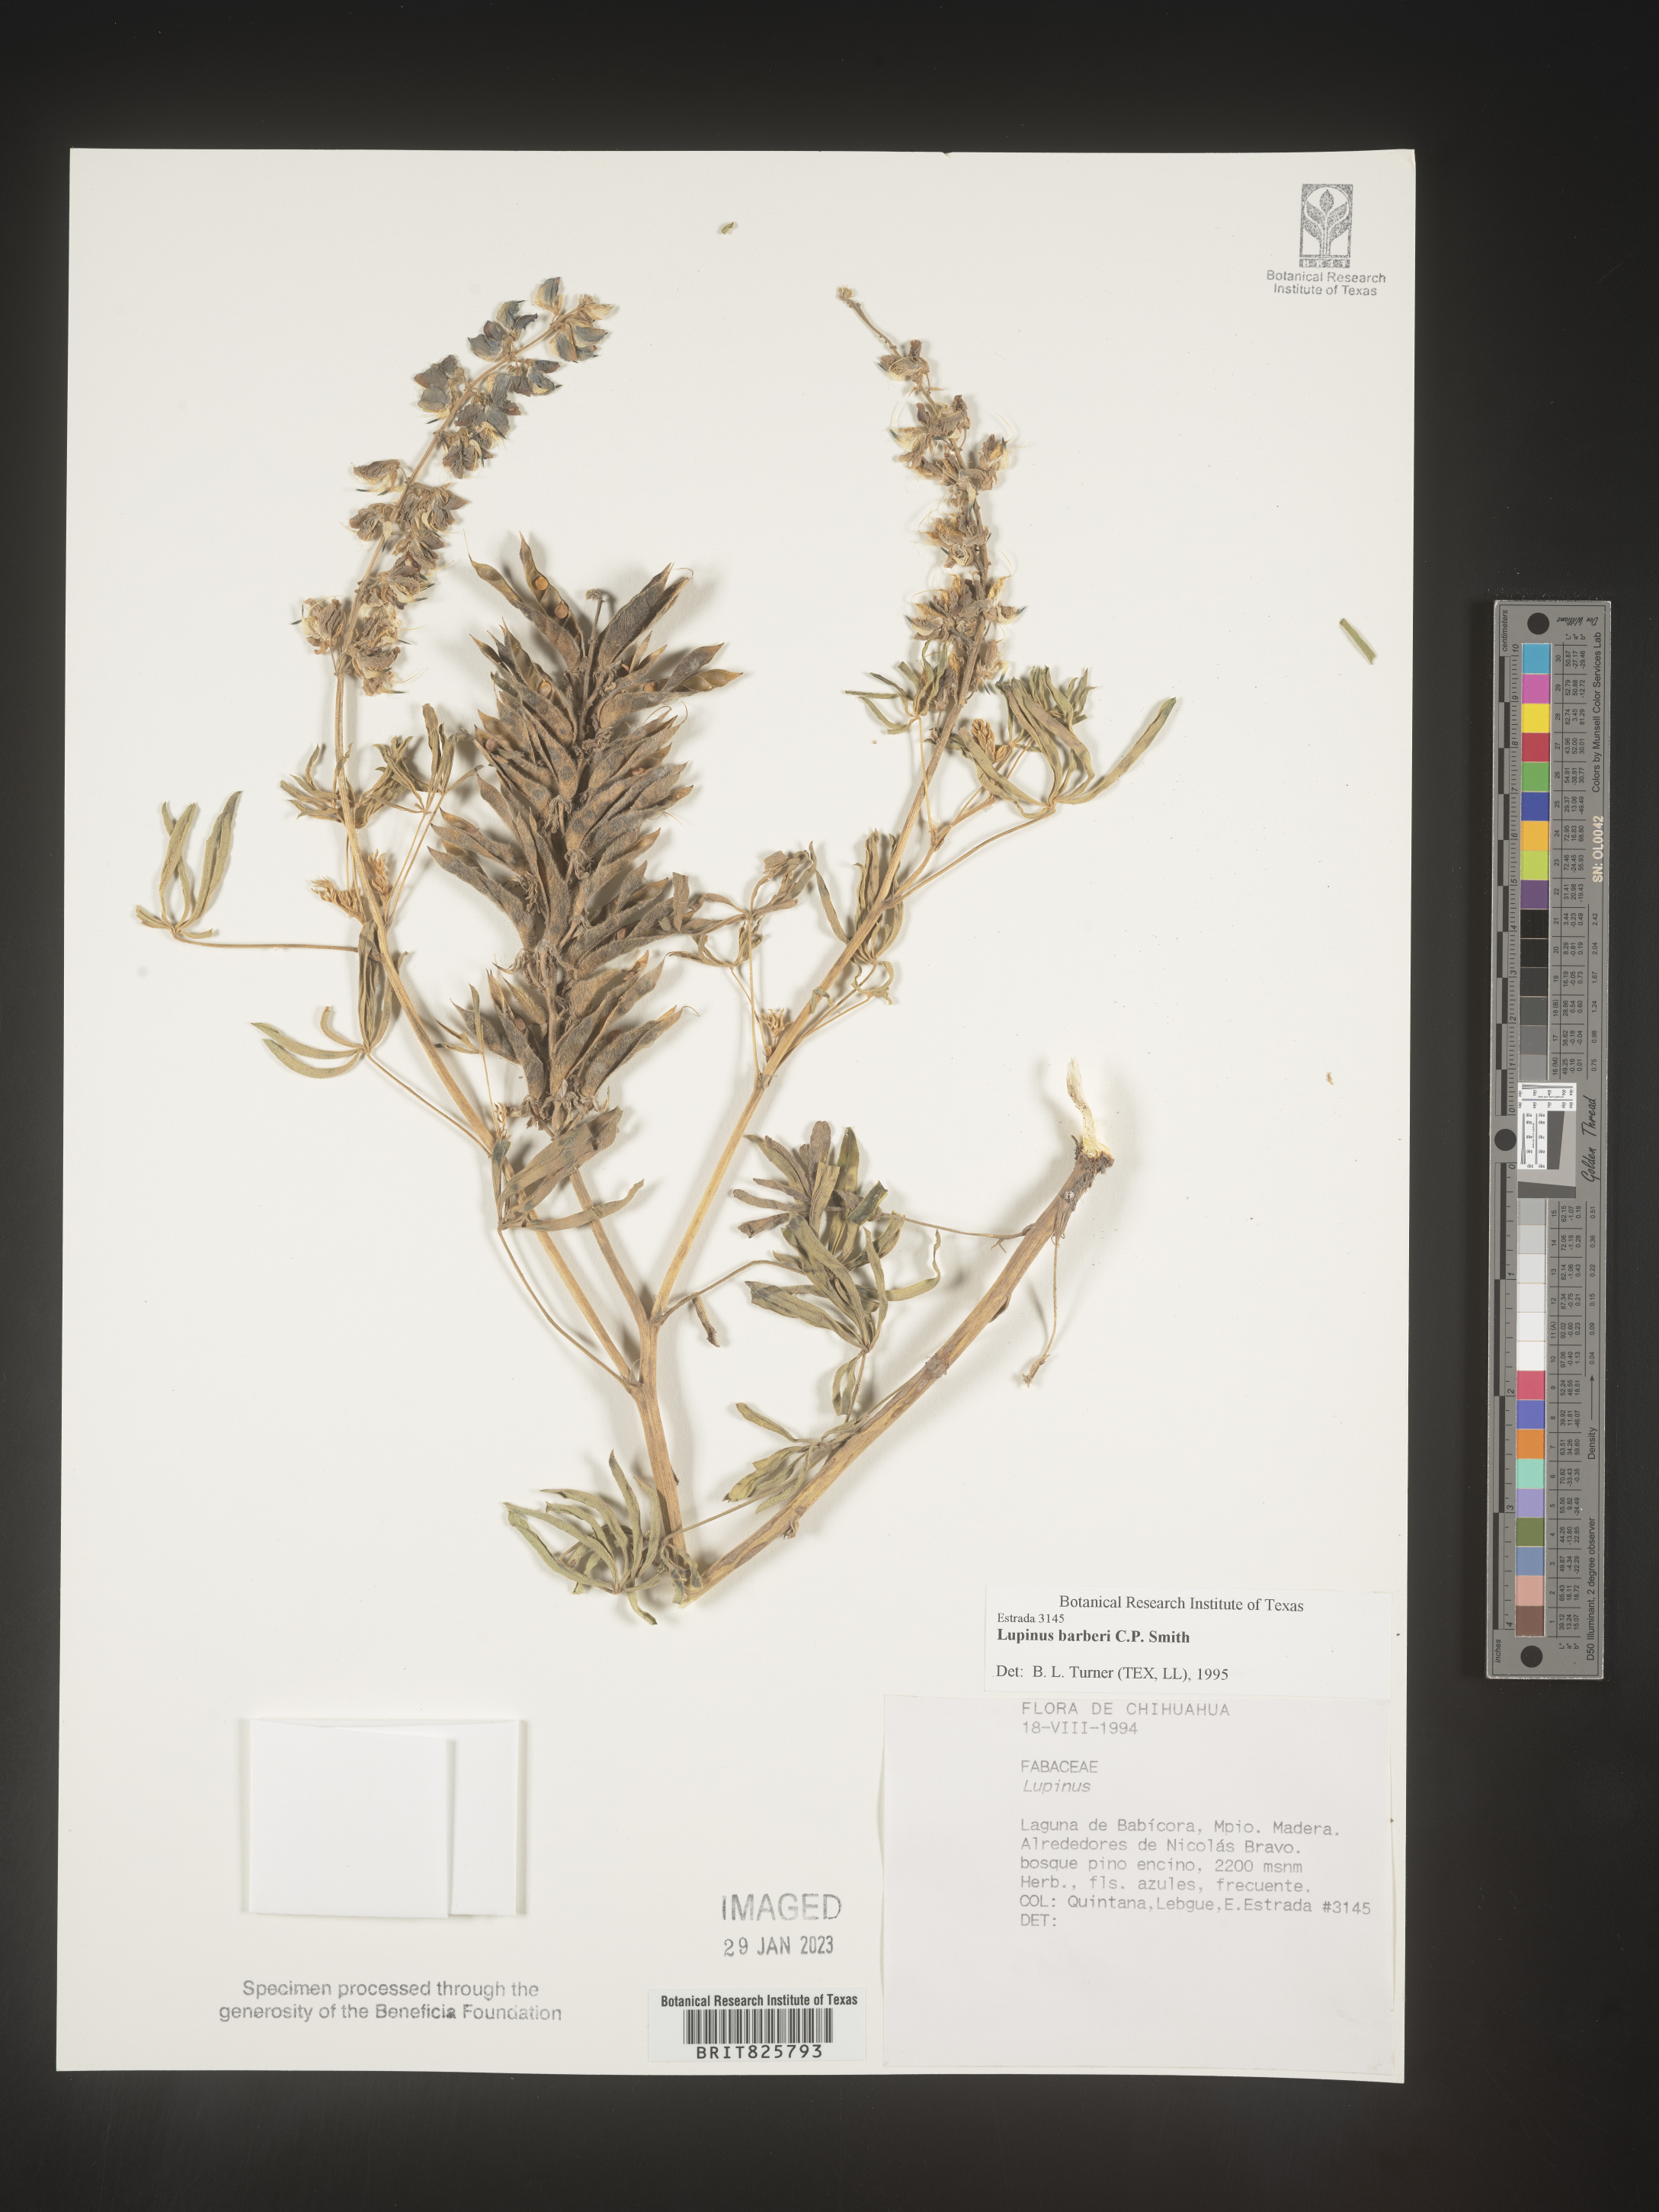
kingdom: Plantae
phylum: Tracheophyta
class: Magnoliopsida
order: Fabales
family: Fabaceae
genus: Lupinus
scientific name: Lupinus
